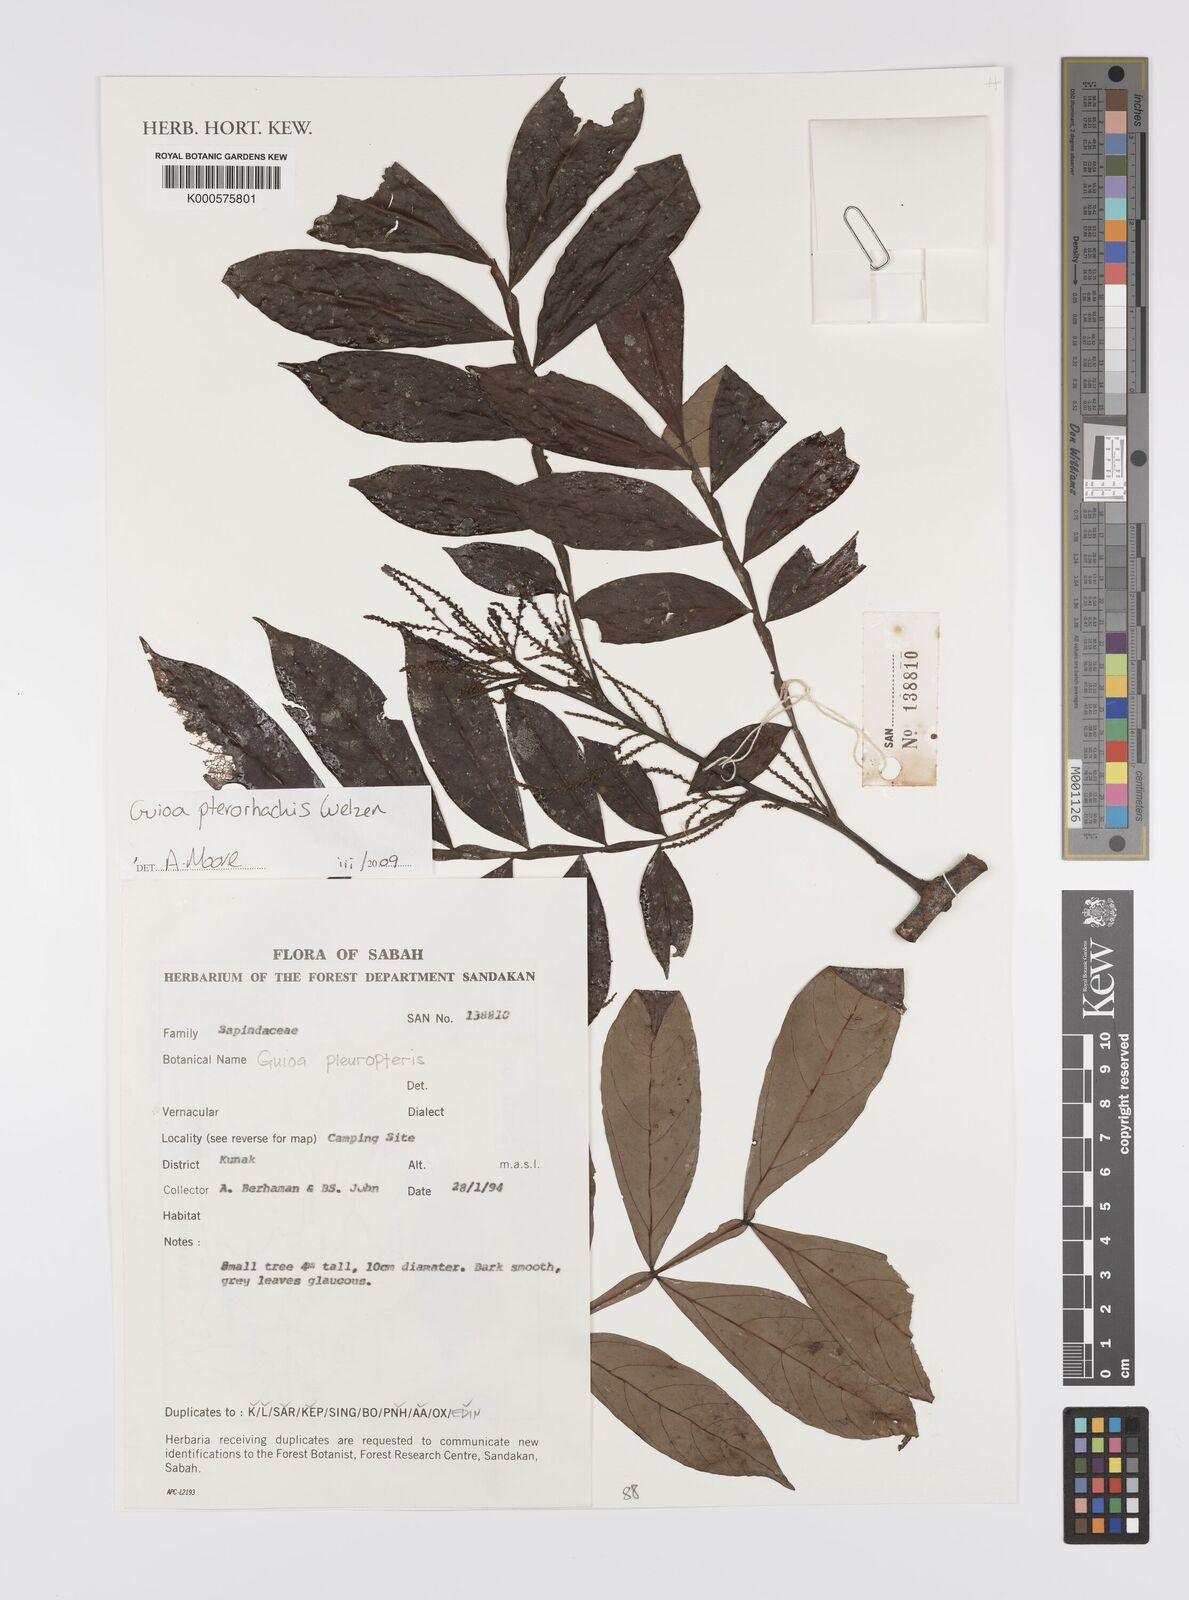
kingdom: Plantae
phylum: Tracheophyta
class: Magnoliopsida
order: Sapindales
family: Sapindaceae
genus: Guioa
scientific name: Guioa pterorhachis
